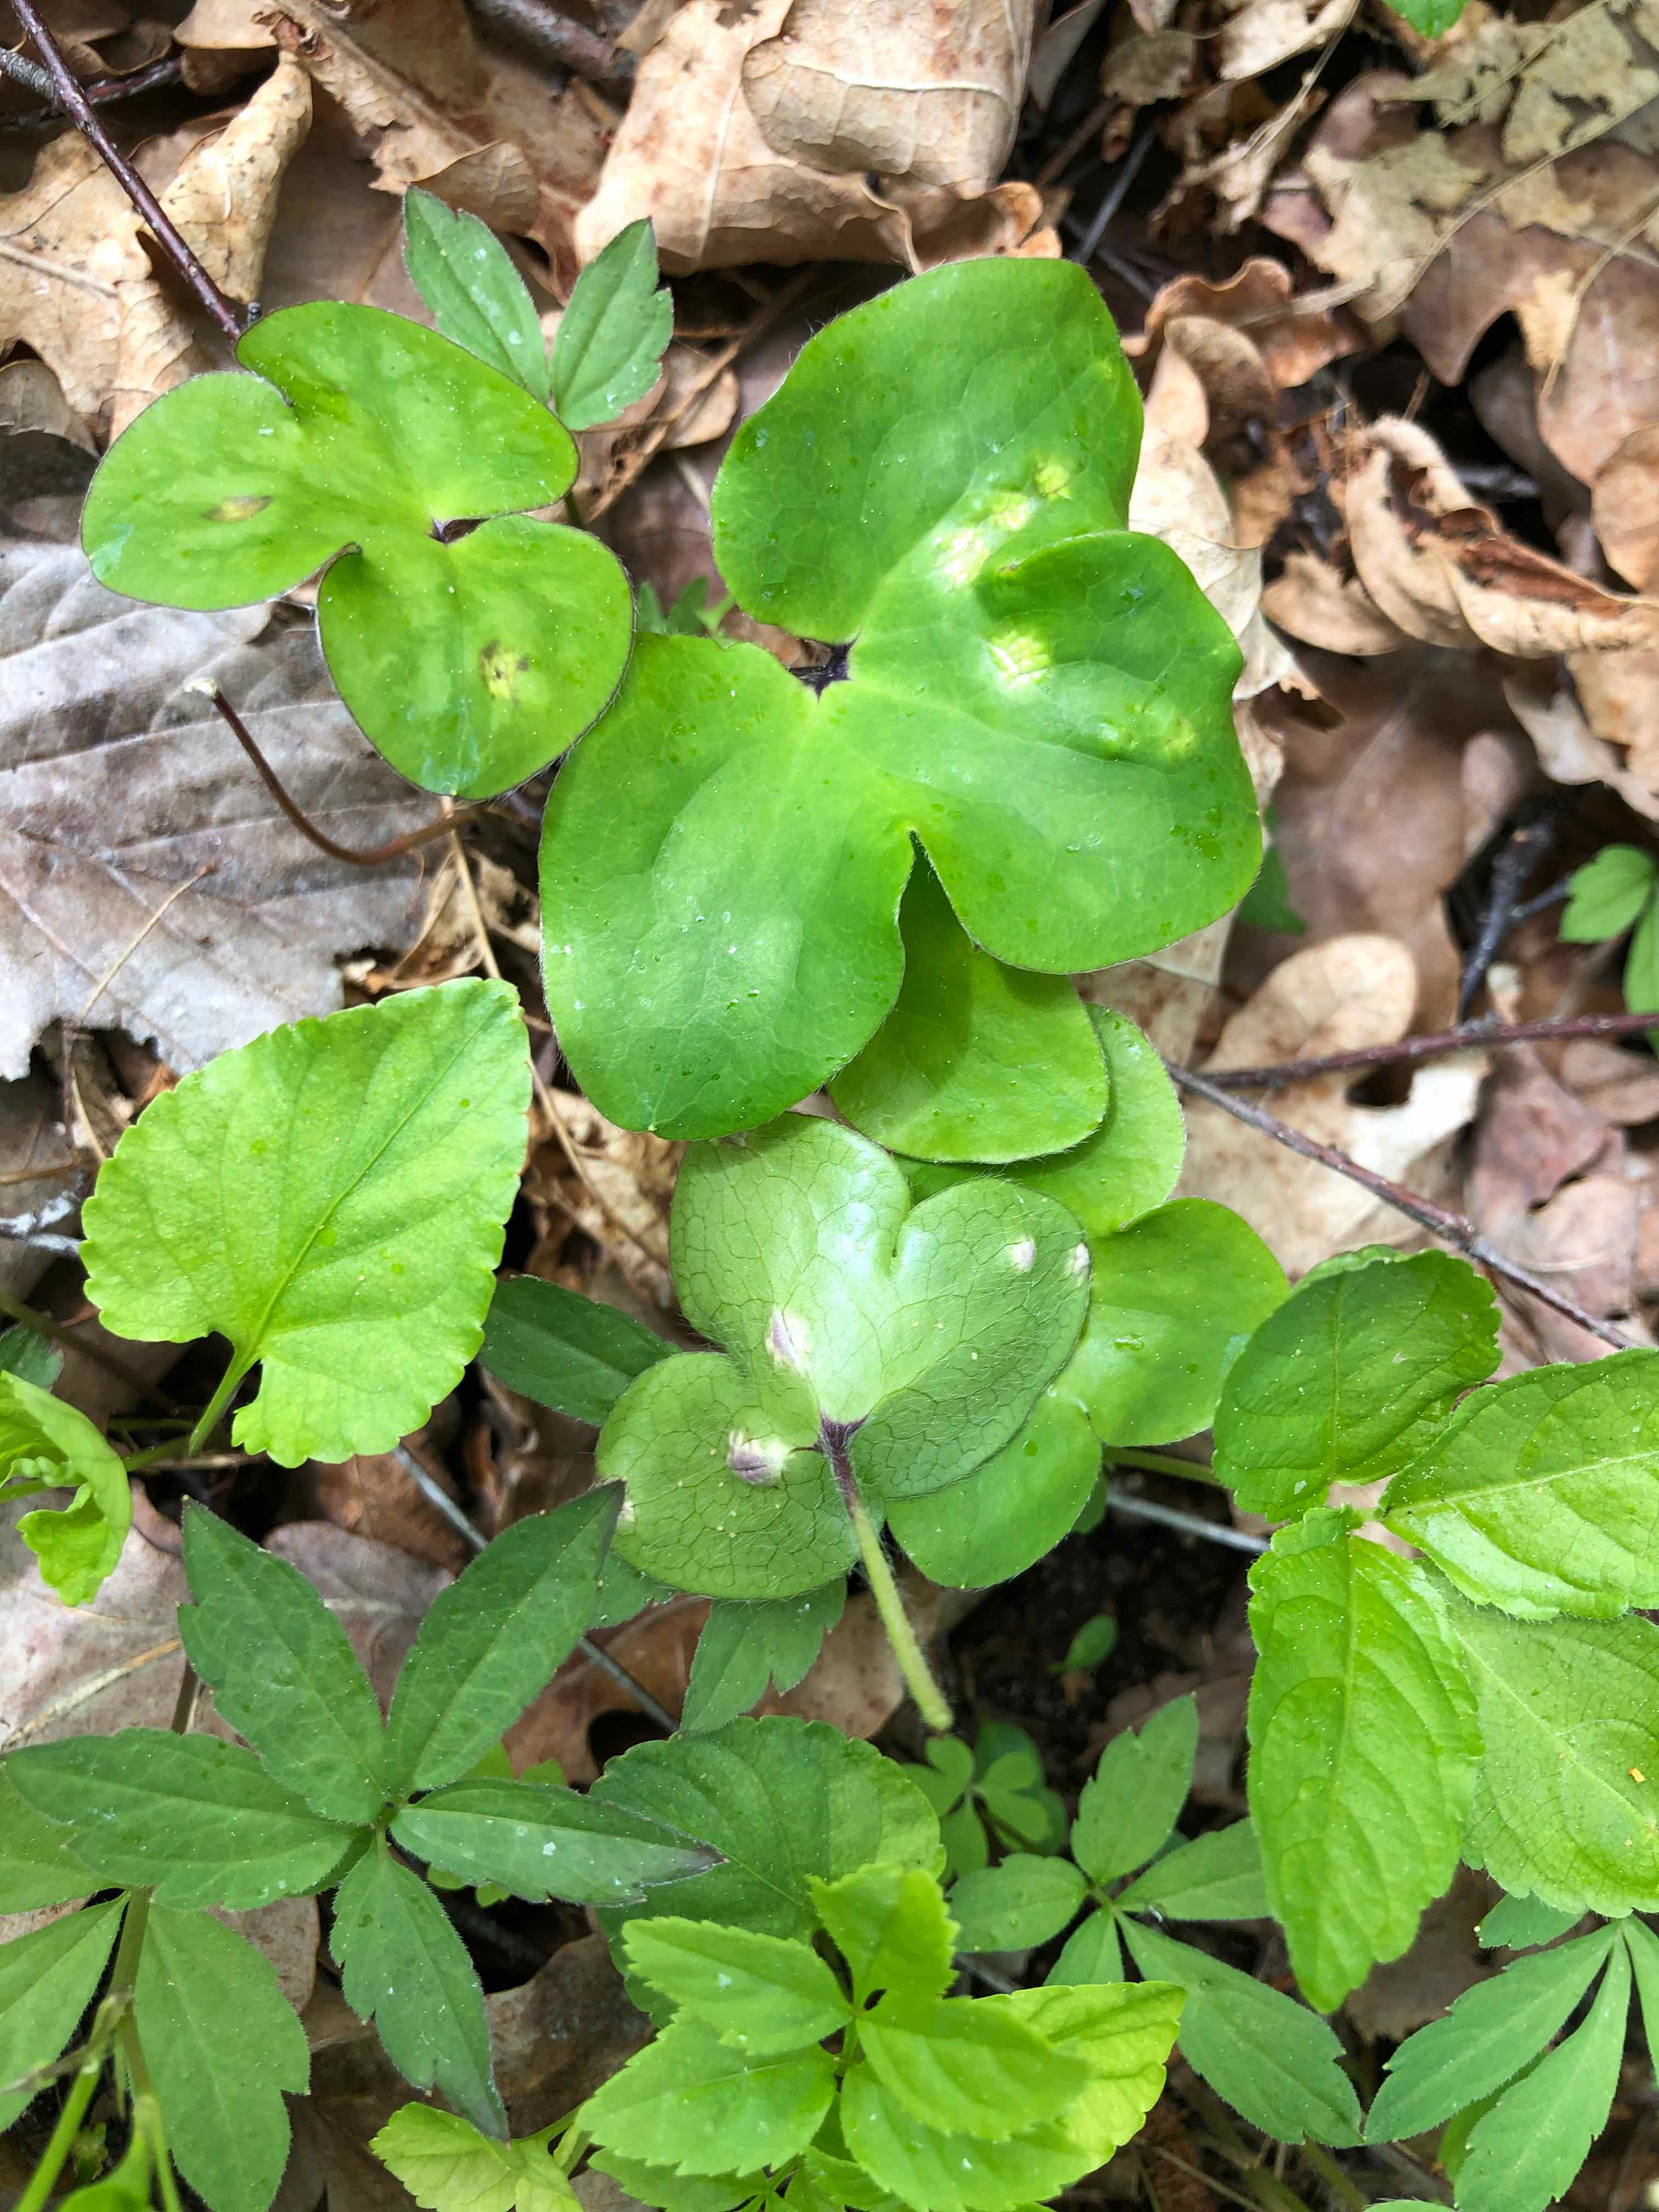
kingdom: Fungi
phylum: Basidiomycota
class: Ustilaginomycetes
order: Urocystidales
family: Urocystidaceae
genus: Urocystis
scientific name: Urocystis syncocca
